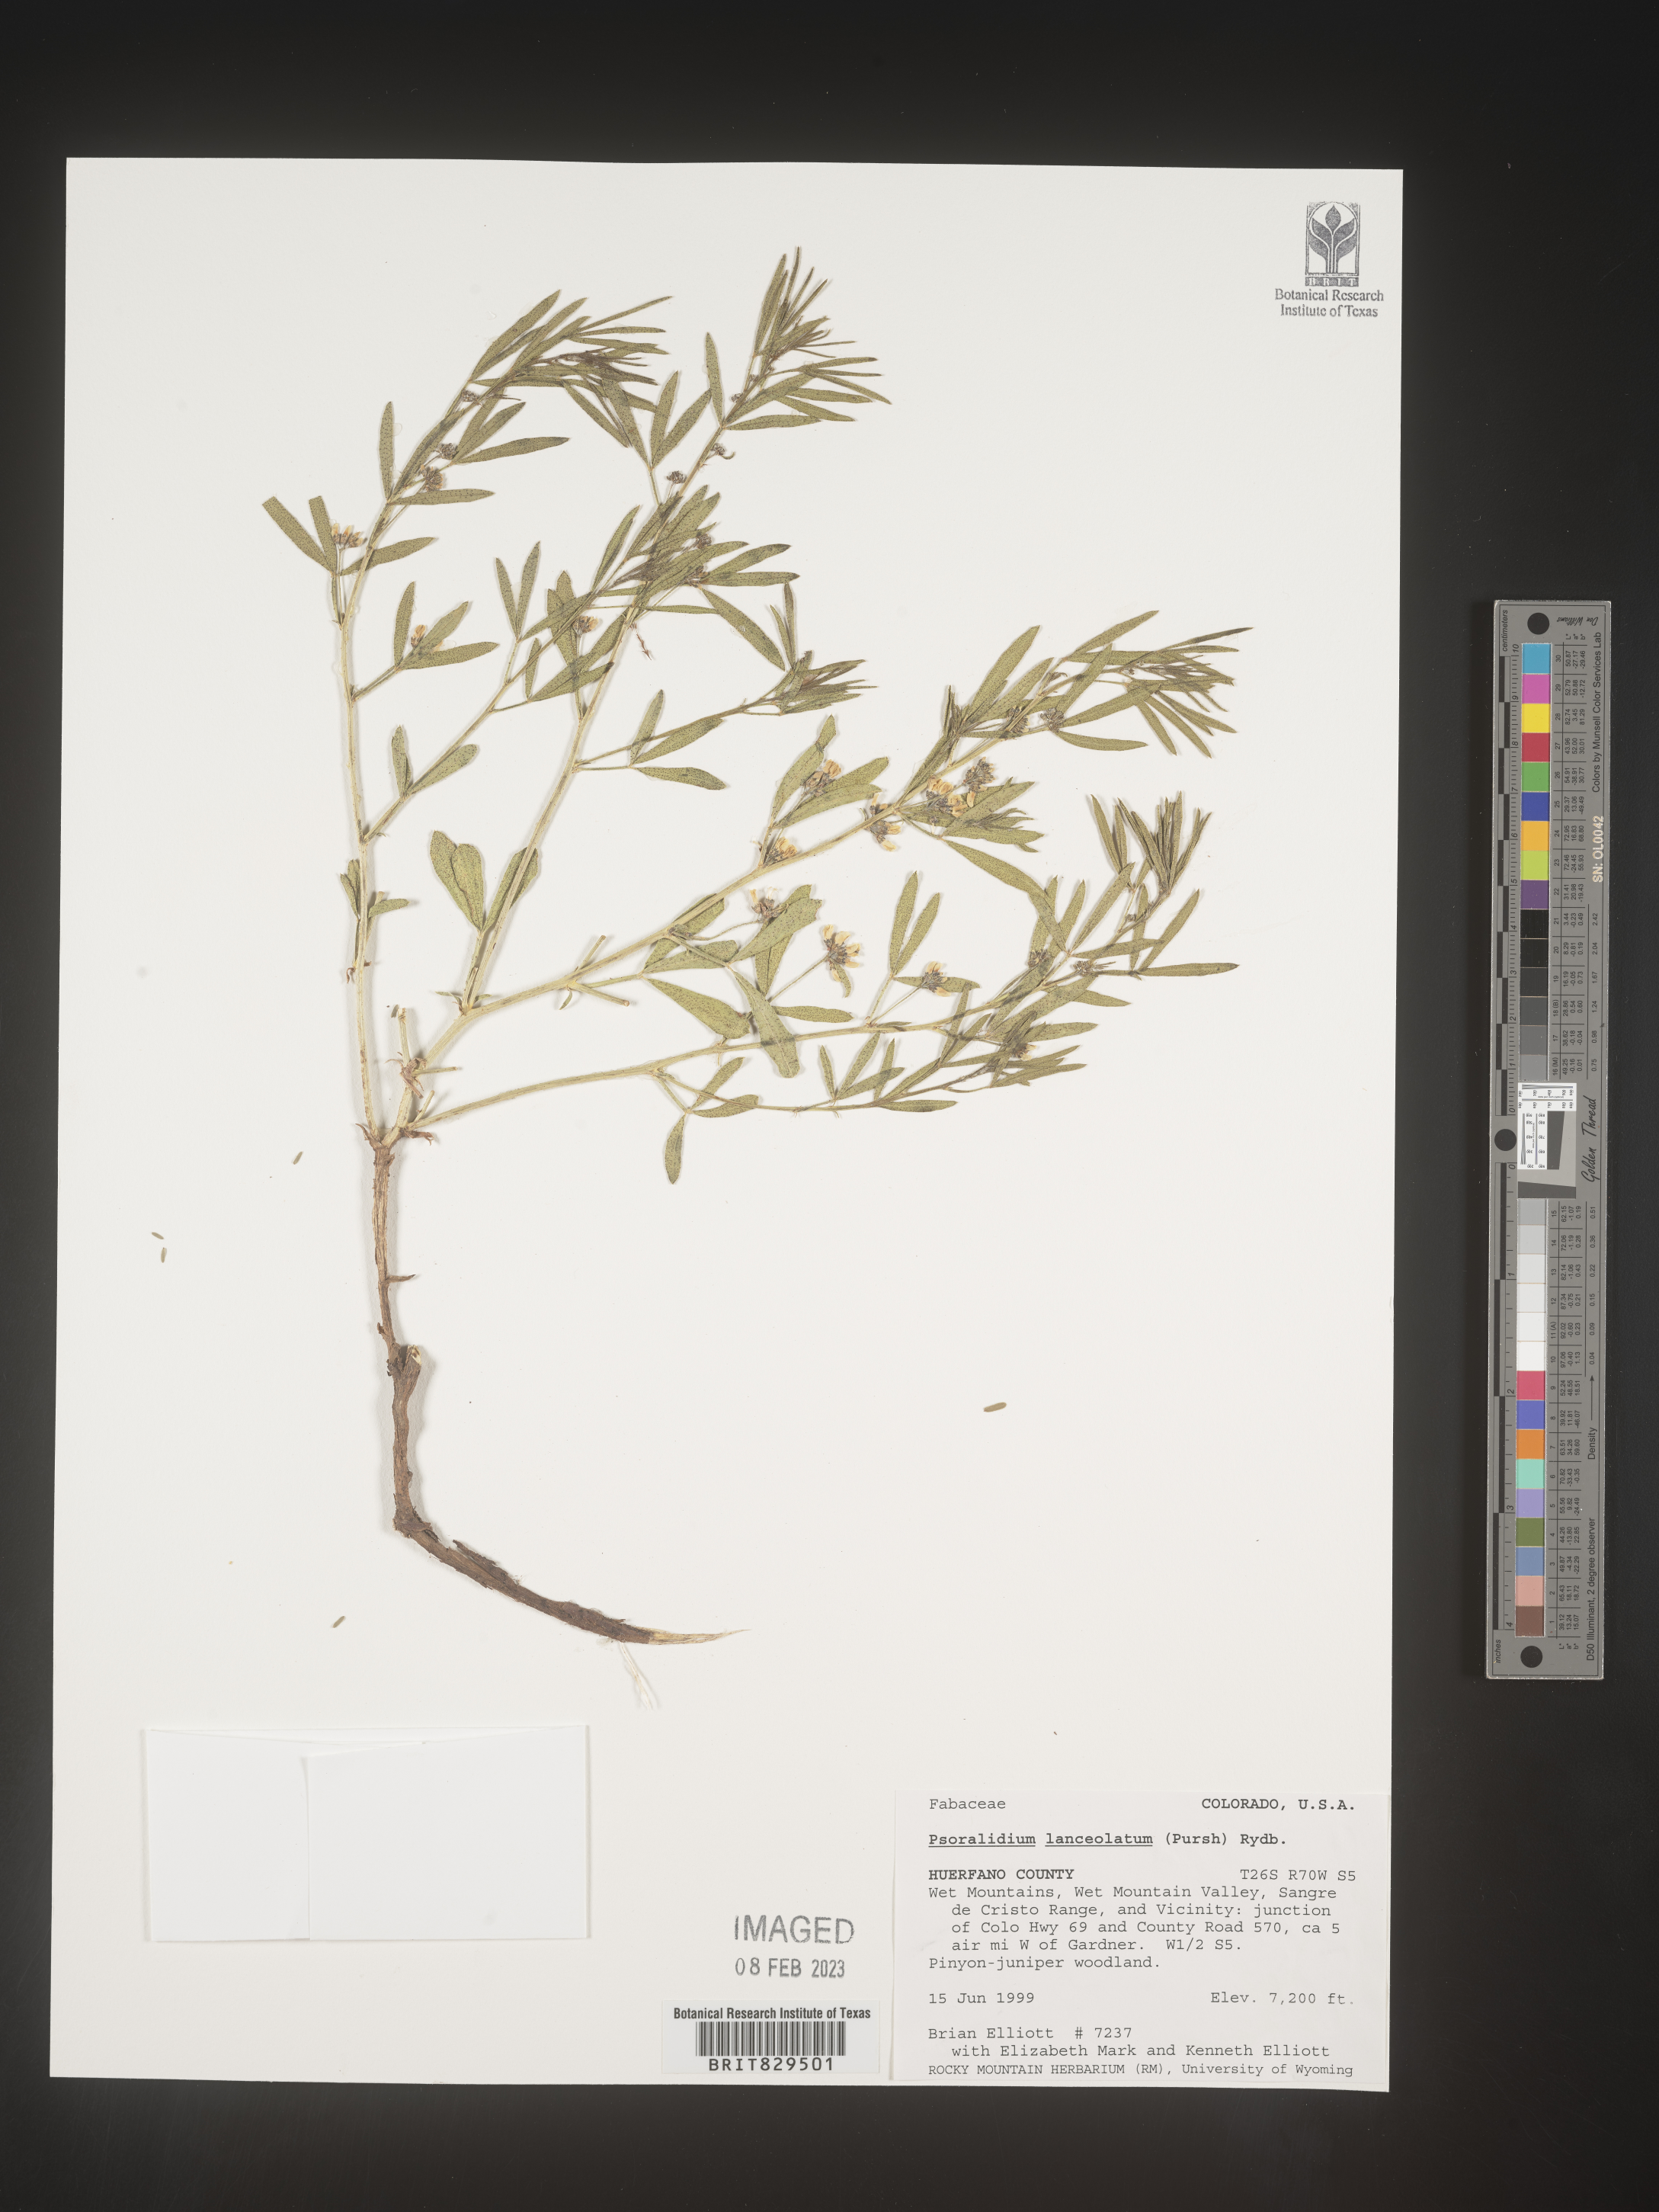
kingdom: Plantae
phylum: Tracheophyta
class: Magnoliopsida
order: Fabales
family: Fabaceae
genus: Ladeania
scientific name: Ladeania lanceolata
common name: Dune scurf-pea
